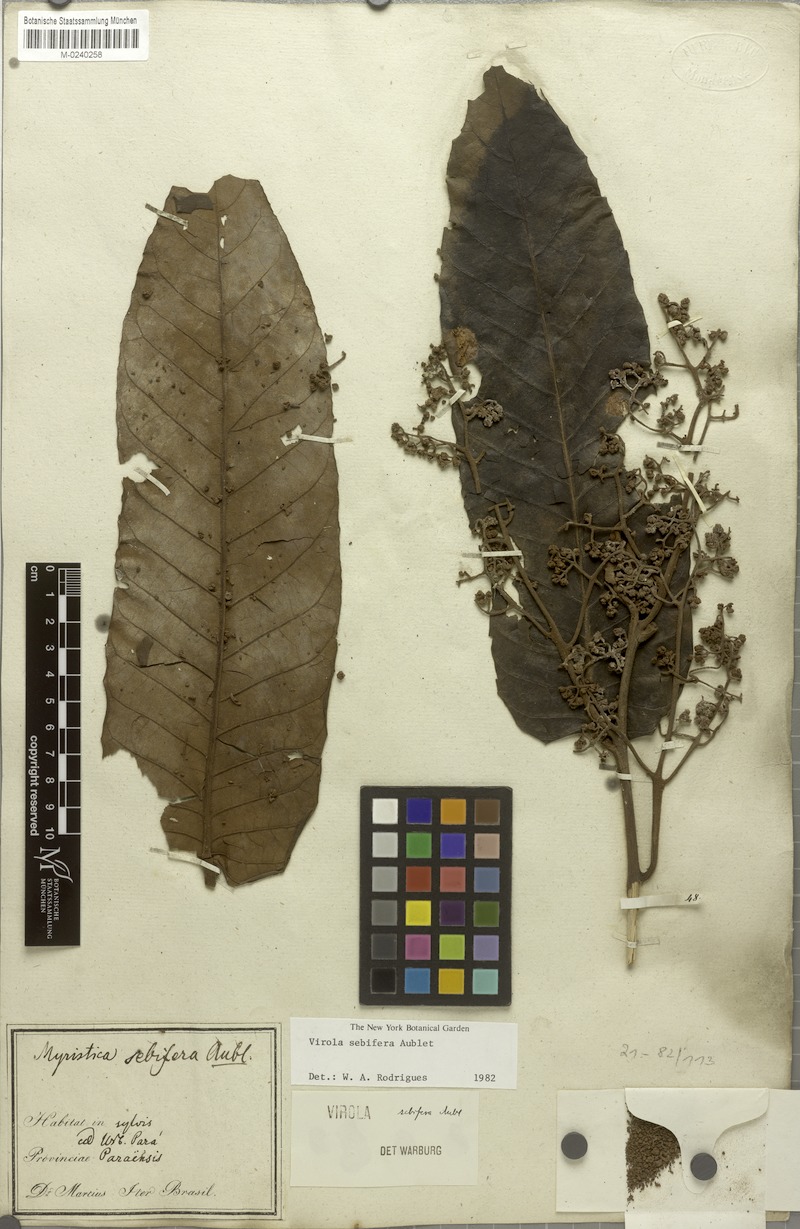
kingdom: Plantae
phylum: Tracheophyta
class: Magnoliopsida
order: Magnoliales
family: Myristicaceae
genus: Virola
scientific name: Virola sebifera
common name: Red ucuuba
